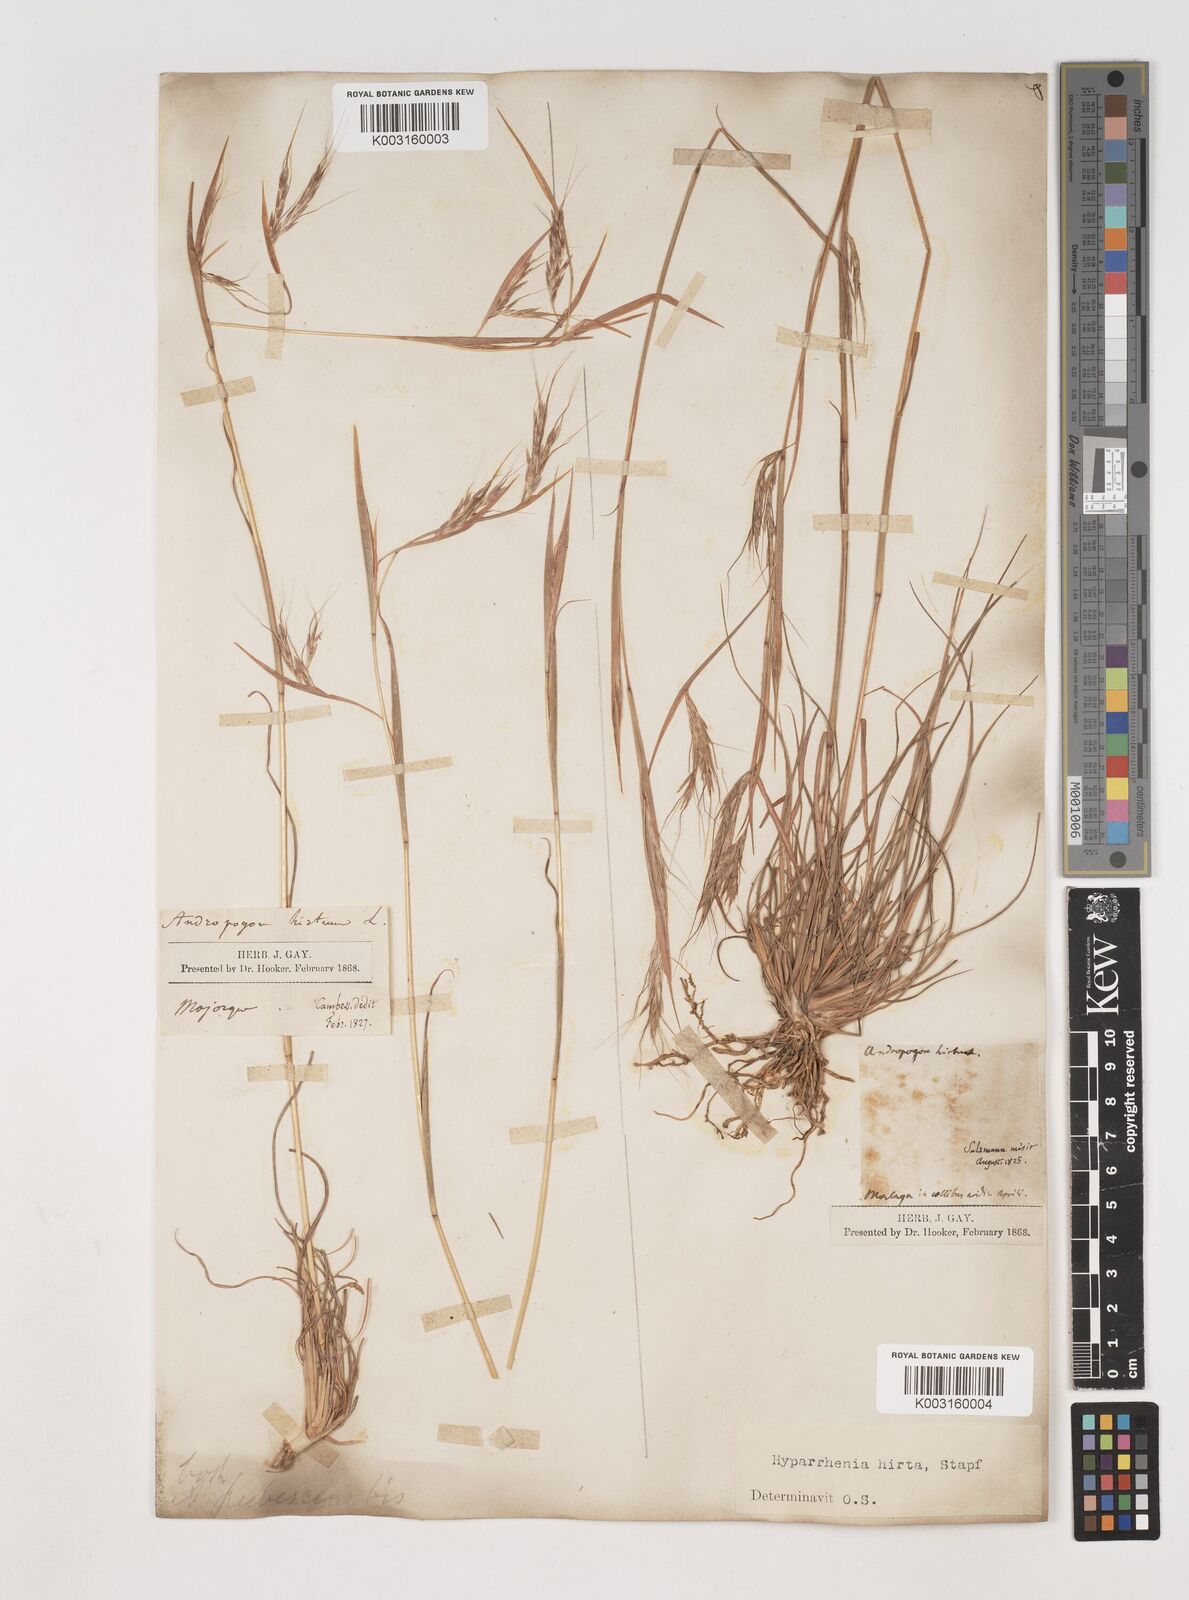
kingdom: Plantae
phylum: Tracheophyta
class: Liliopsida
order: Poales
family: Poaceae
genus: Hyparrhenia
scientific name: Hyparrhenia hirta
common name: Thatching grass
